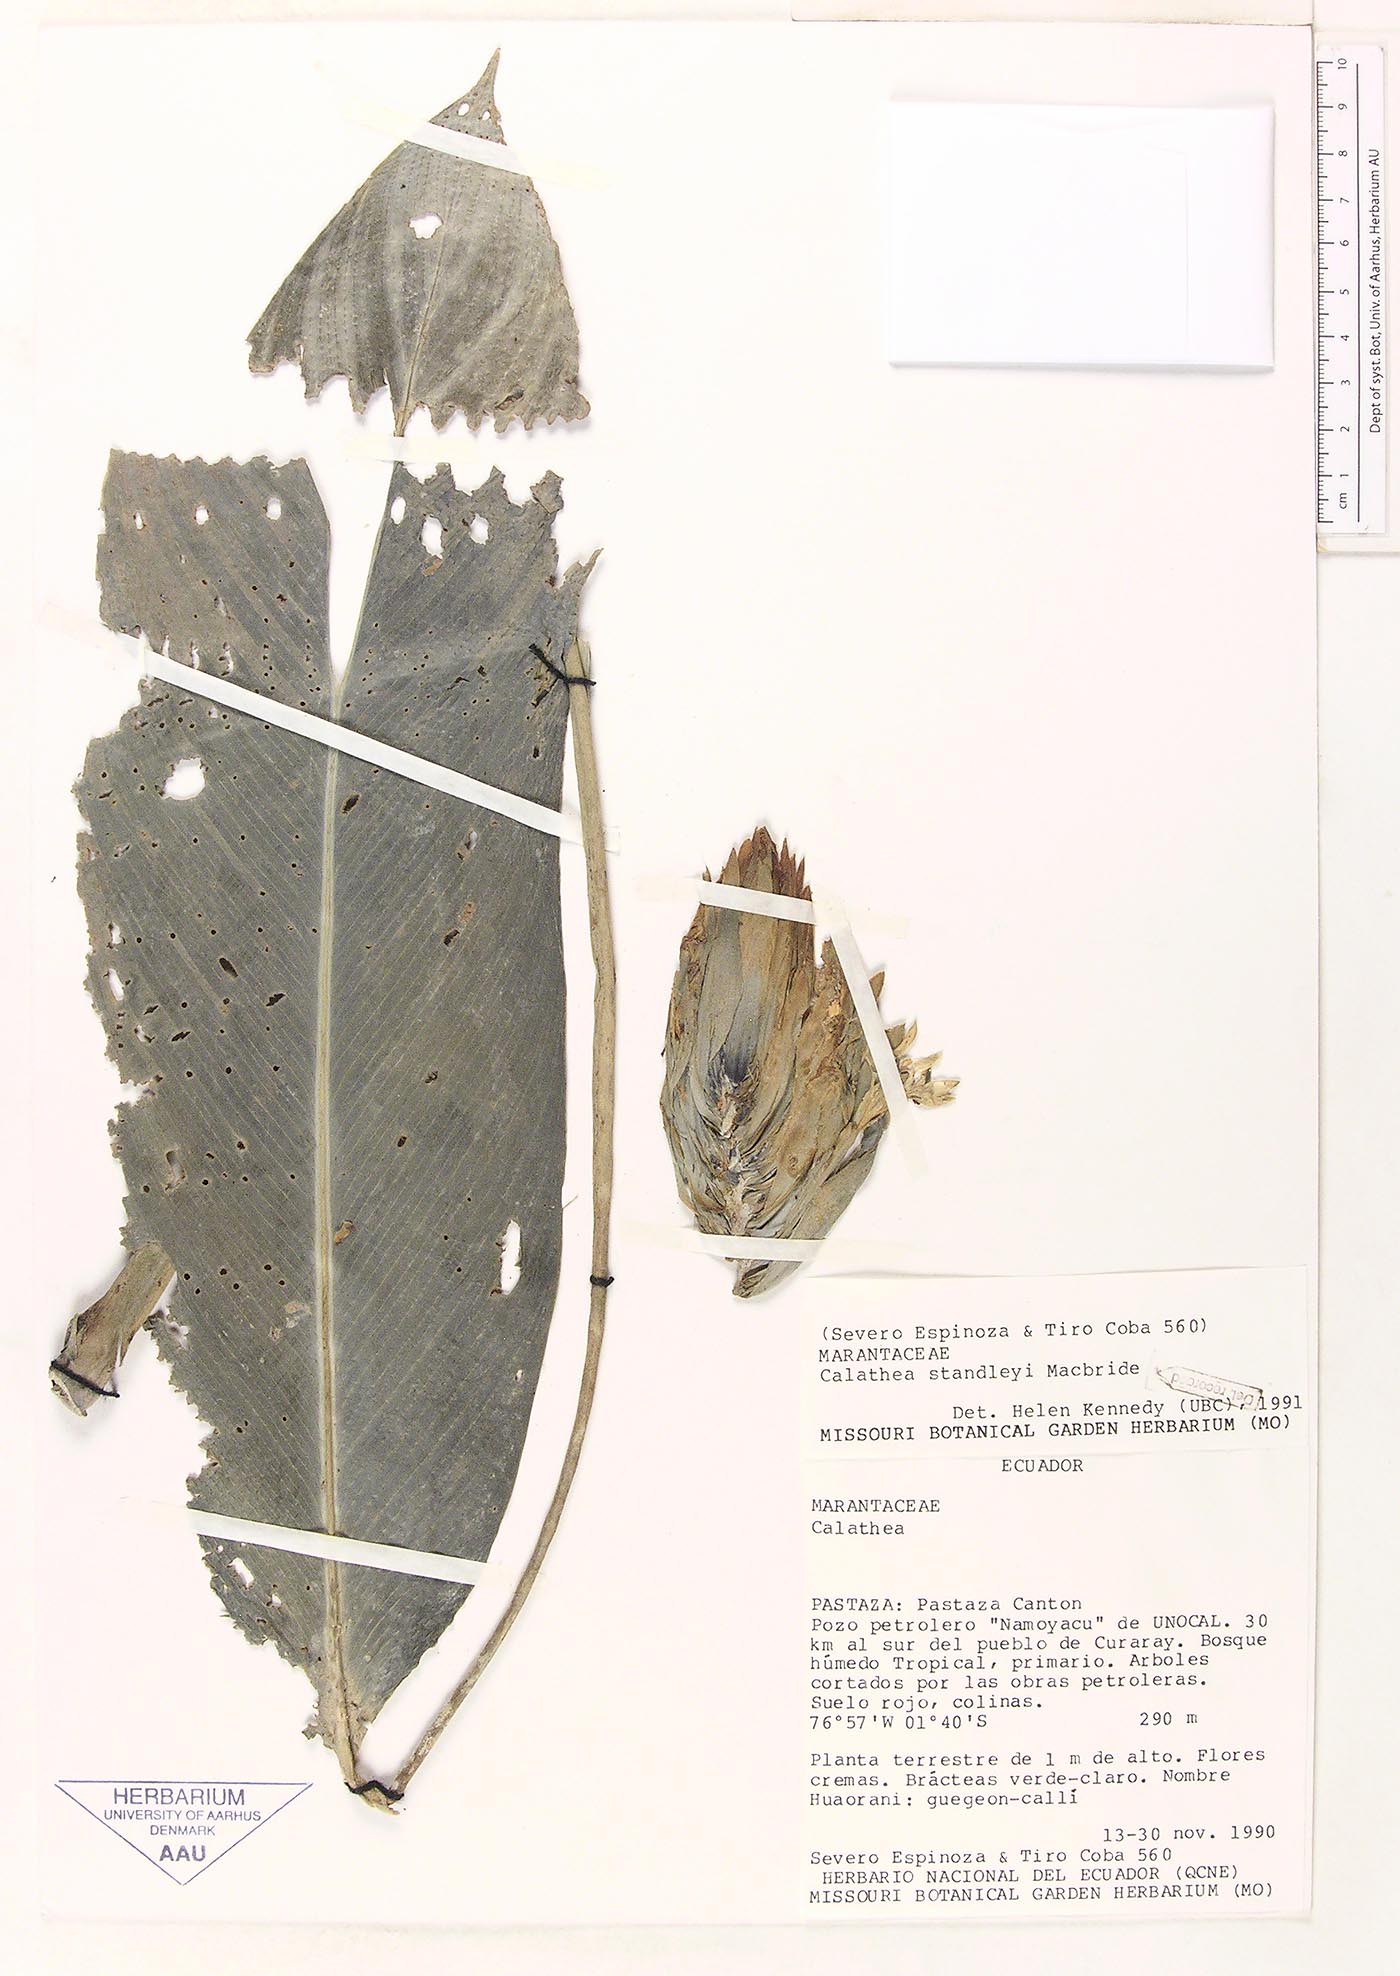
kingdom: Plantae
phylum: Tracheophyta
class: Liliopsida
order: Zingiberales
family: Marantaceae
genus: Goeppertia
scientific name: Goeppertia standleyi
